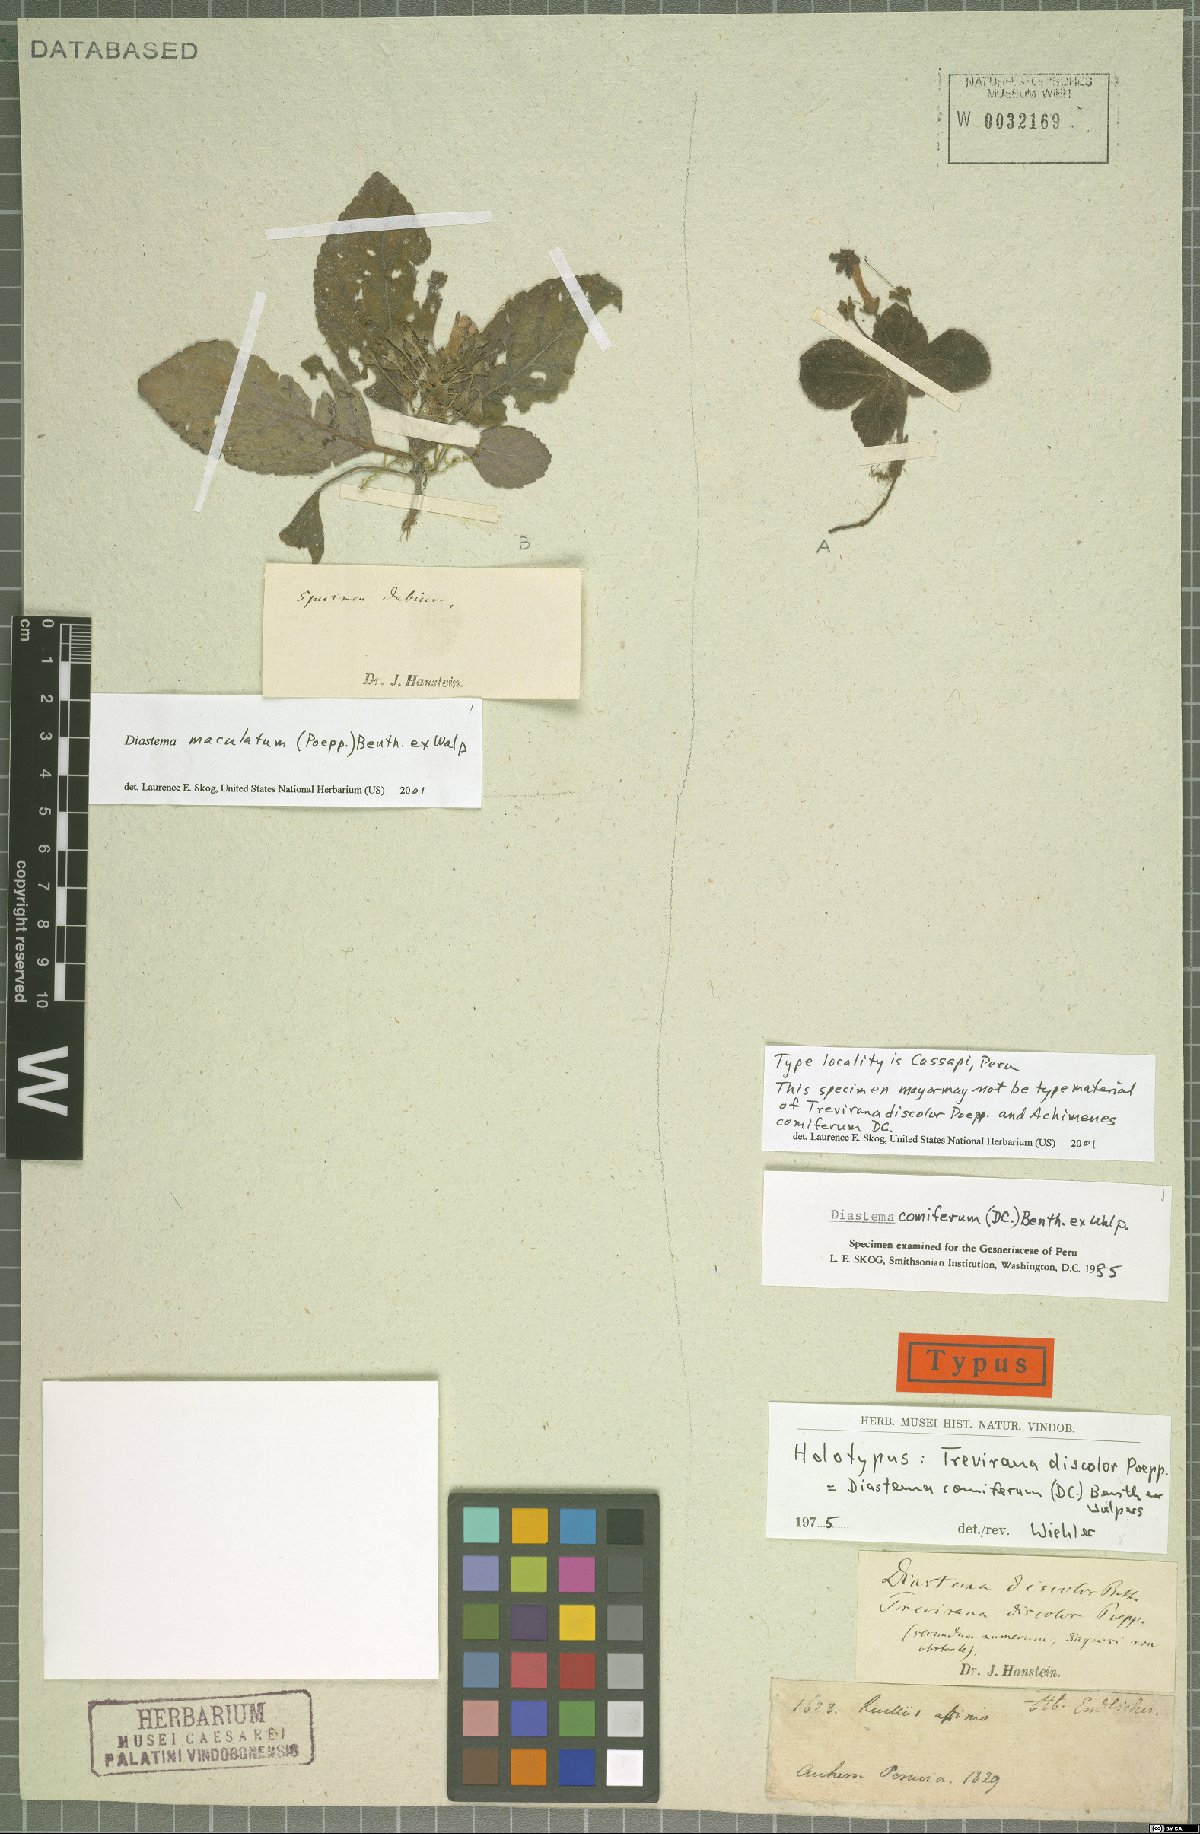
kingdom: Plantae
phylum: Tracheophyta
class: Magnoliopsida
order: Lamiales
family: Gesneriaceae
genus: Diastema
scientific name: Diastema maculatum
